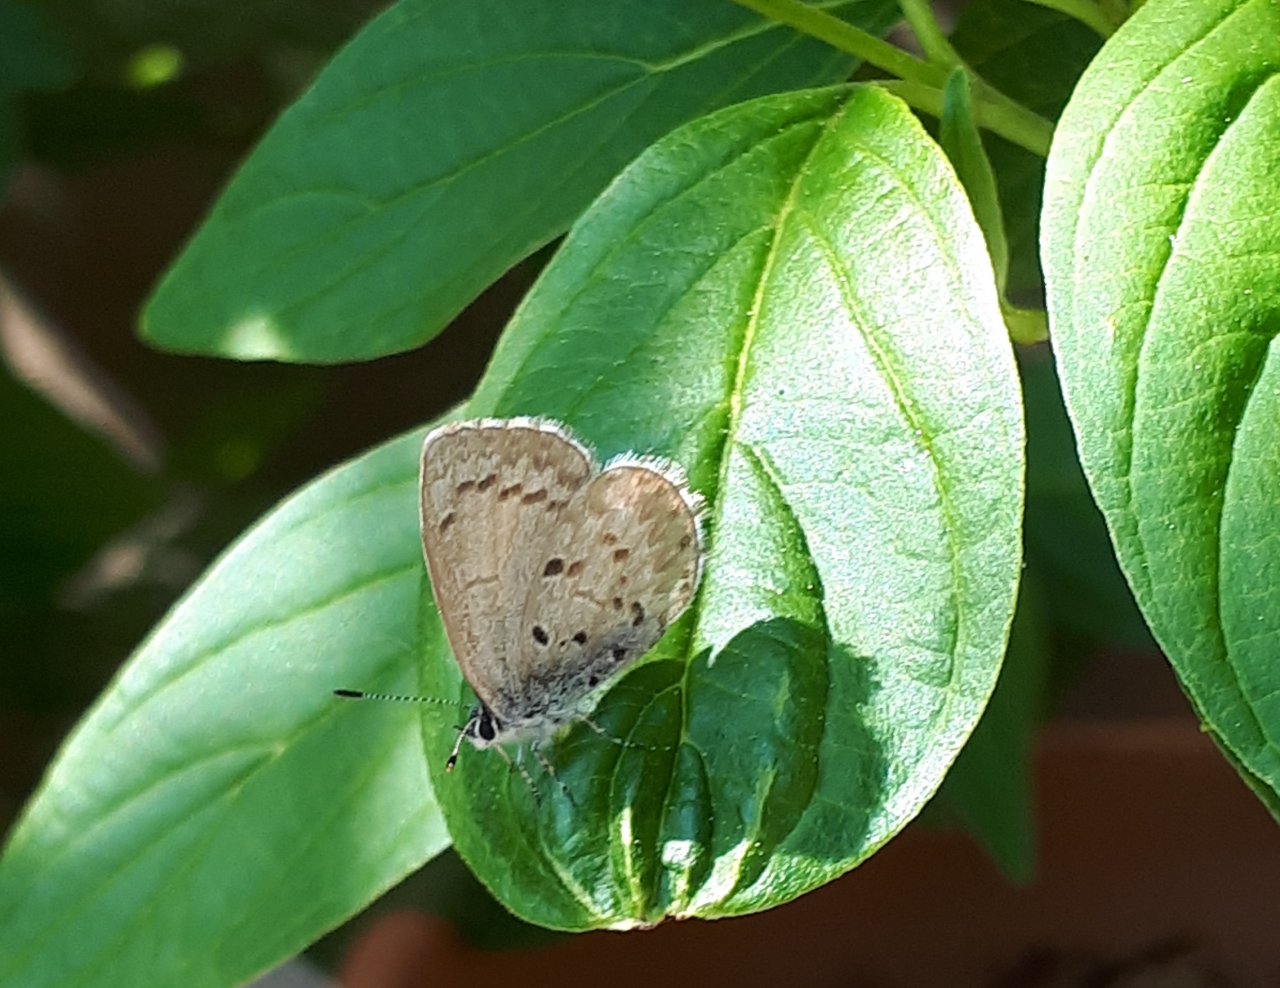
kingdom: Animalia
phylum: Arthropoda
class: Insecta
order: Lepidoptera
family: Lycaenidae
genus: Celastrina
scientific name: Celastrina lucia
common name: Northern Spring Azure
